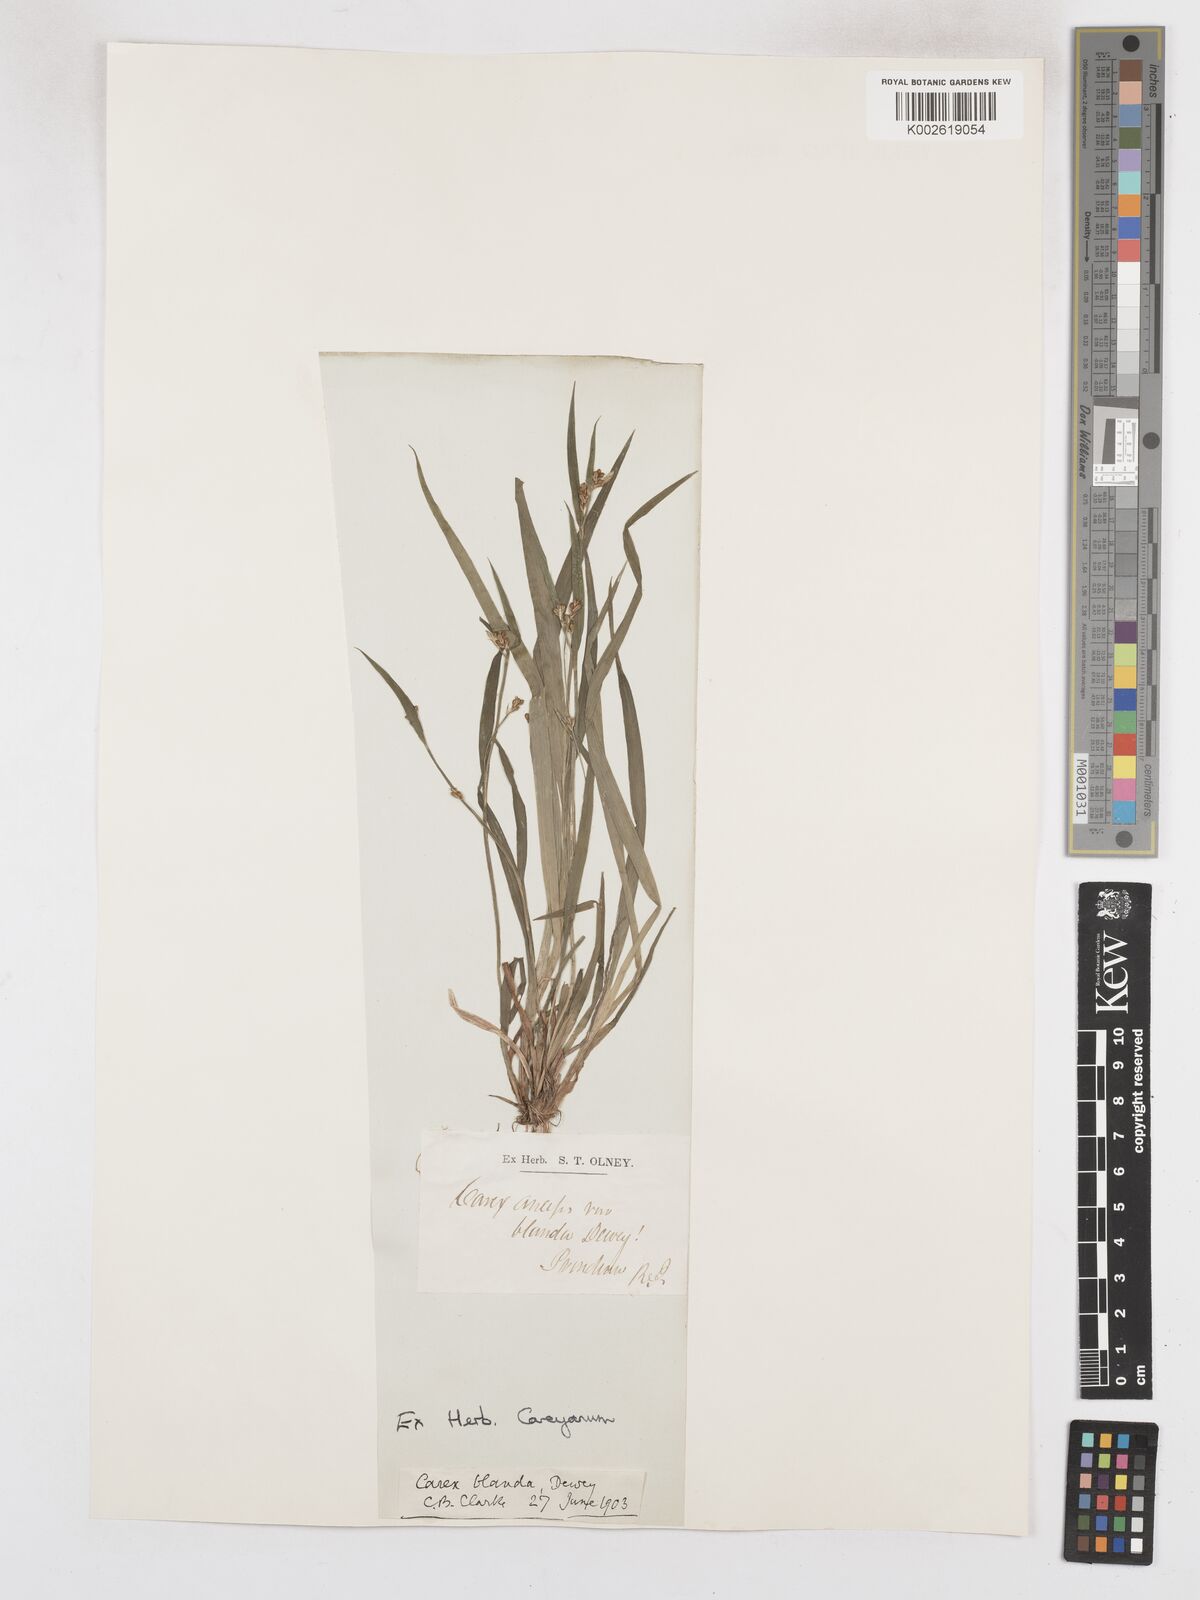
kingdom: Plantae
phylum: Tracheophyta
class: Liliopsida
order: Poales
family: Cyperaceae
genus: Carex
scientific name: Carex blanda
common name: Bland sedge
